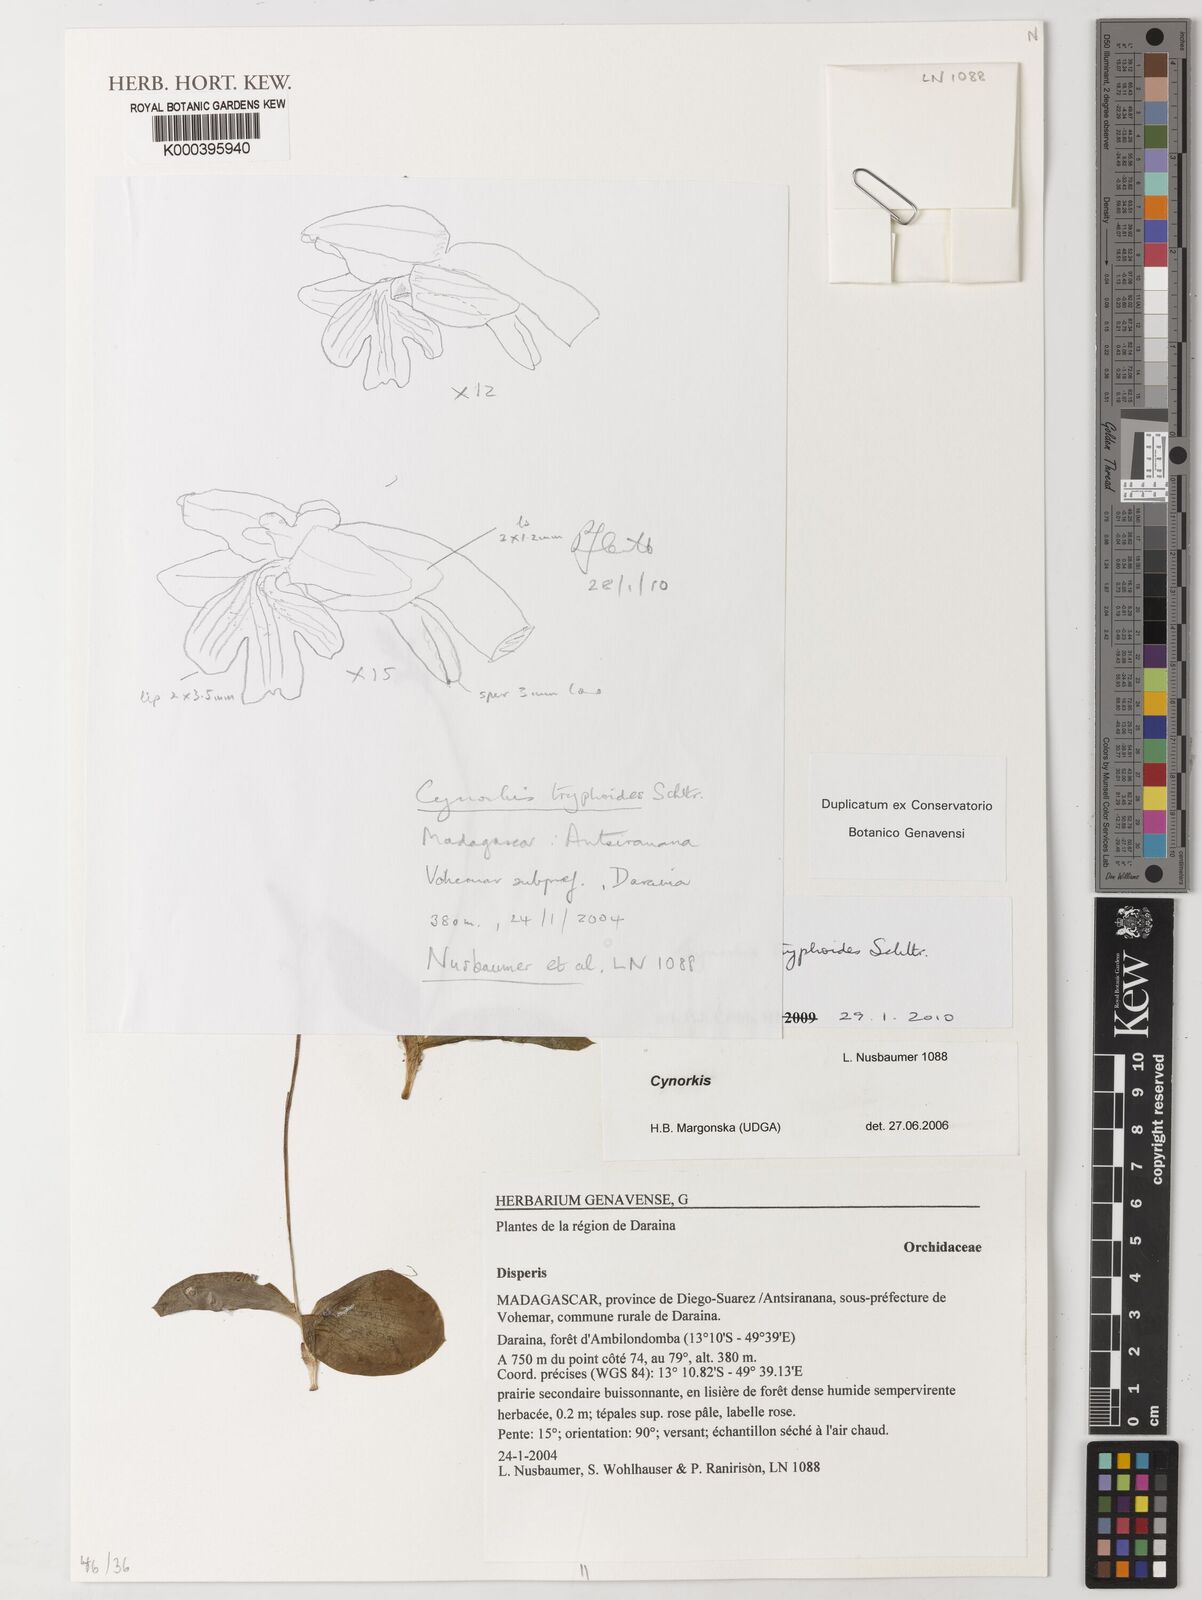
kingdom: Plantae
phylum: Tracheophyta
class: Liliopsida
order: Asparagales
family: Orchidaceae
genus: Cynorkis
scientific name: Cynorkis tryphioides
